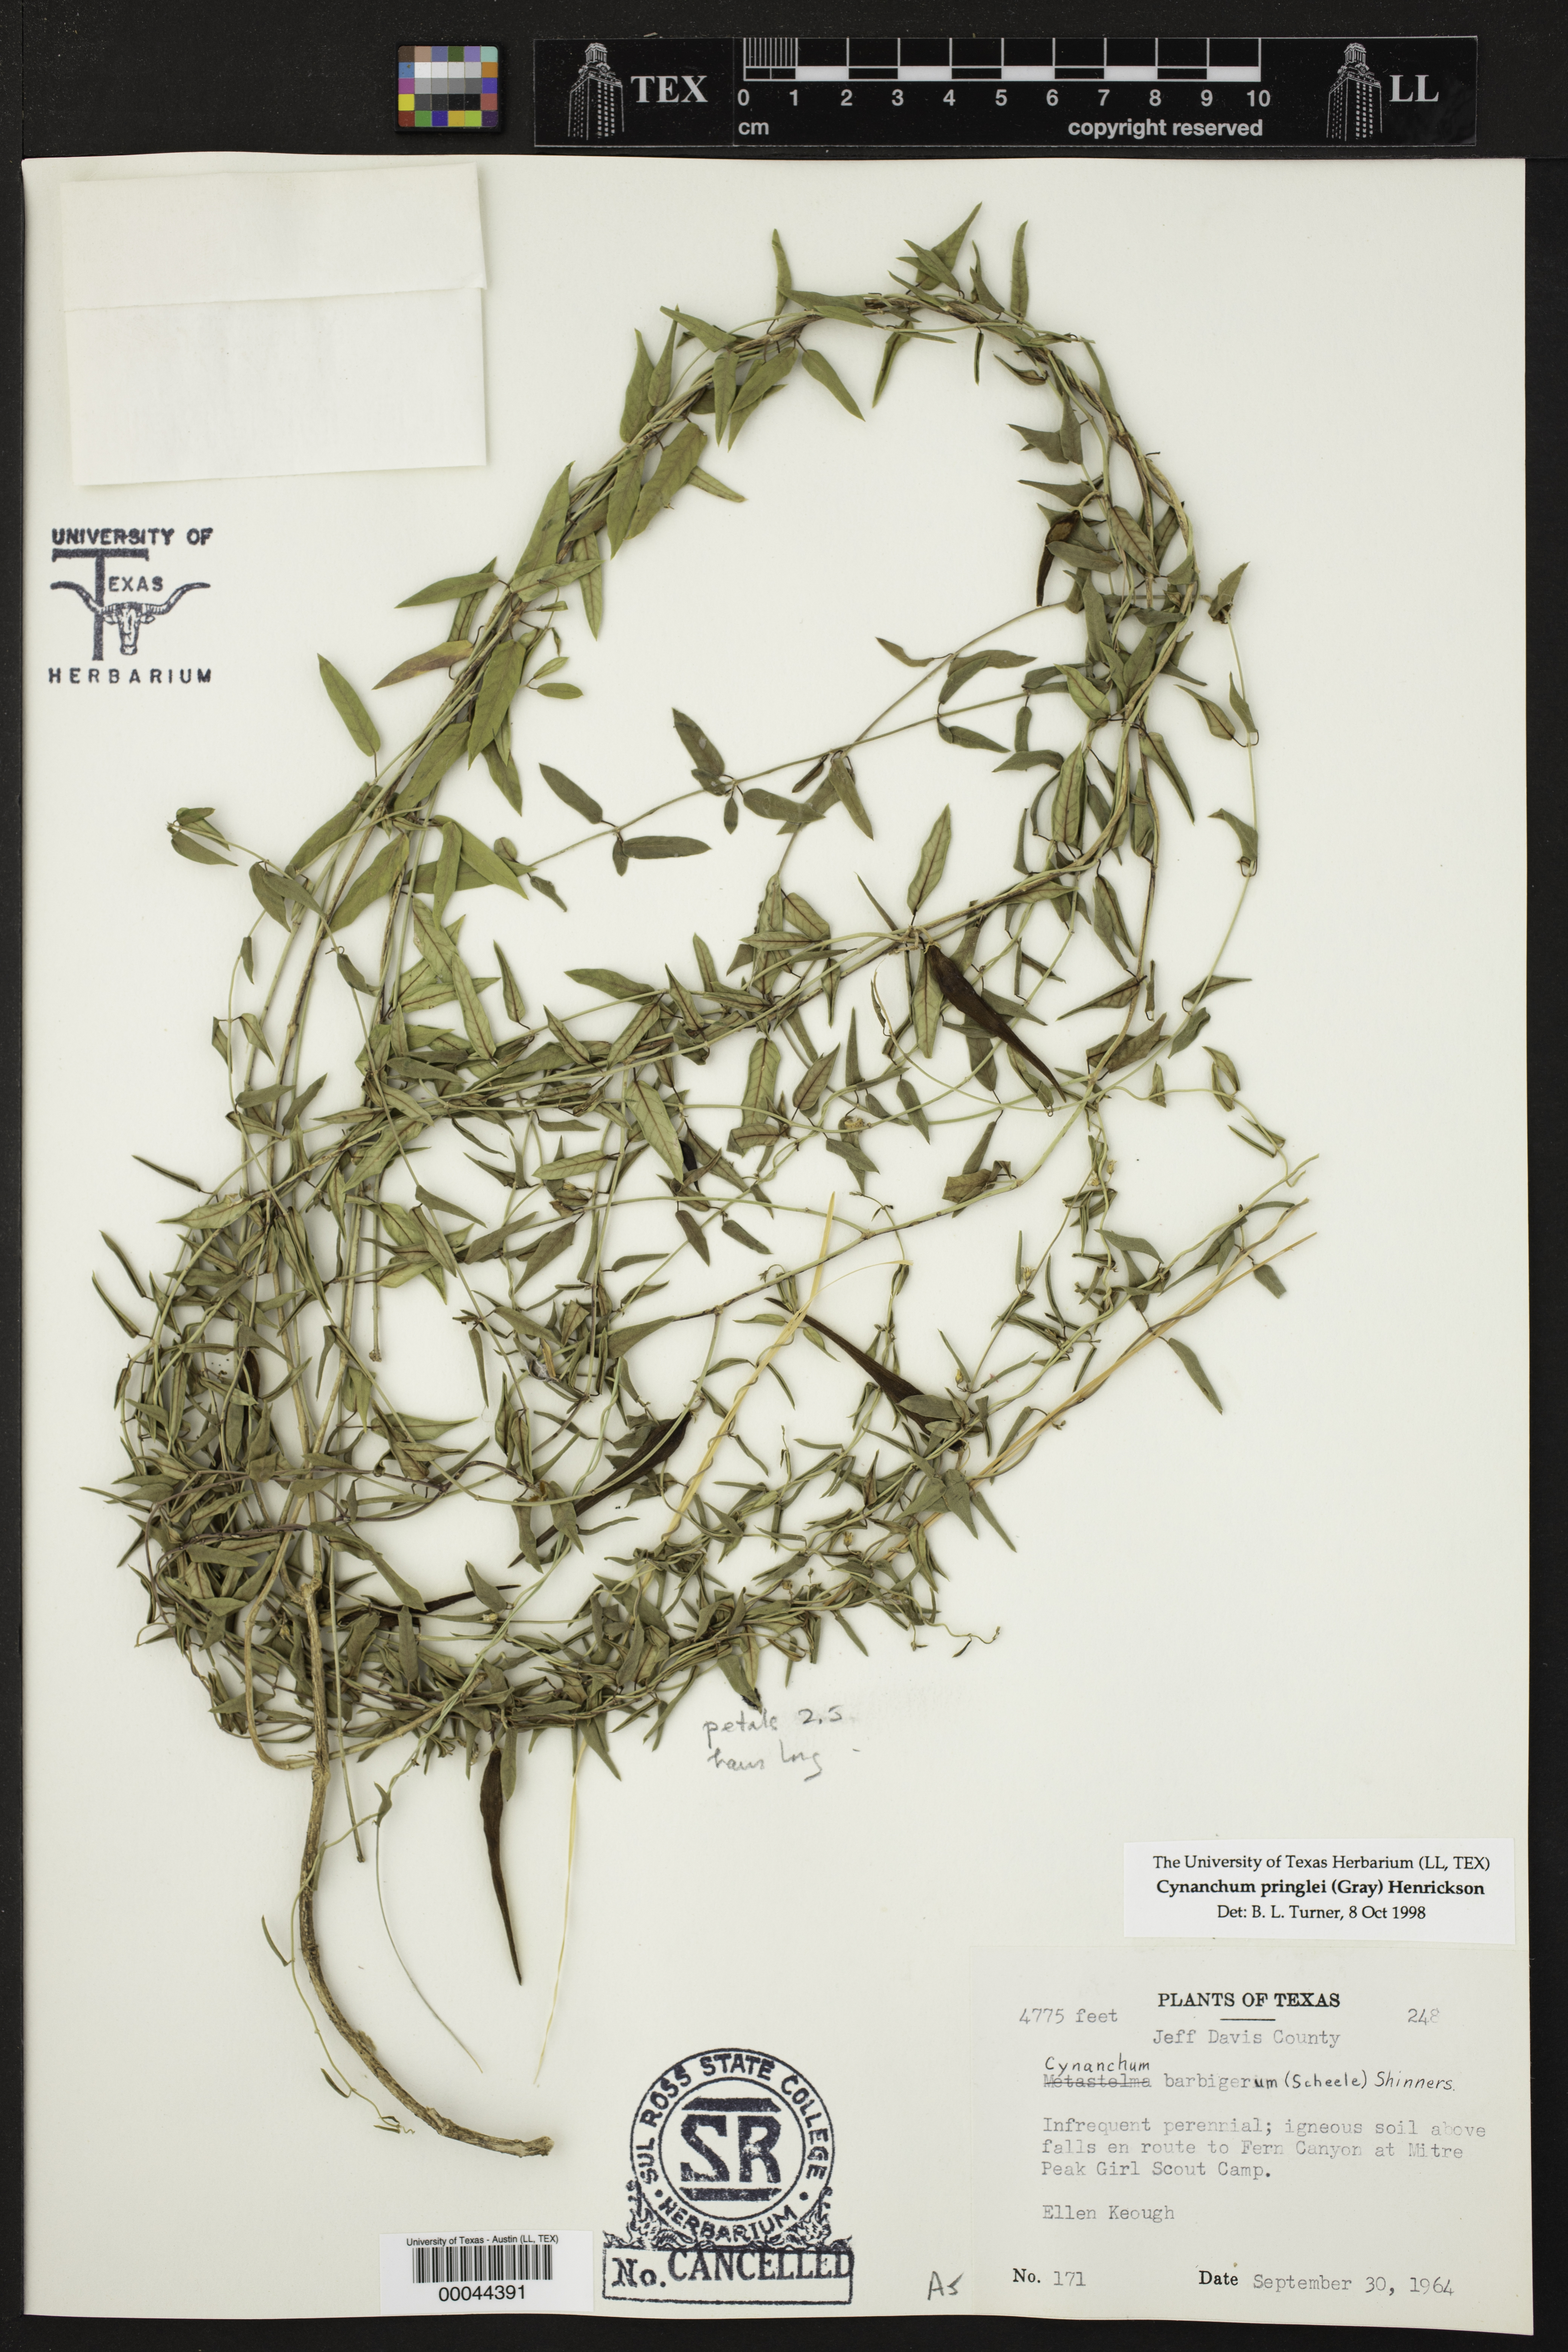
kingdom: Plantae
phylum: Tracheophyta
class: Magnoliopsida
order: Gentianales
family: Apocynaceae
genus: Metastelma
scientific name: Metastelma pringlei
